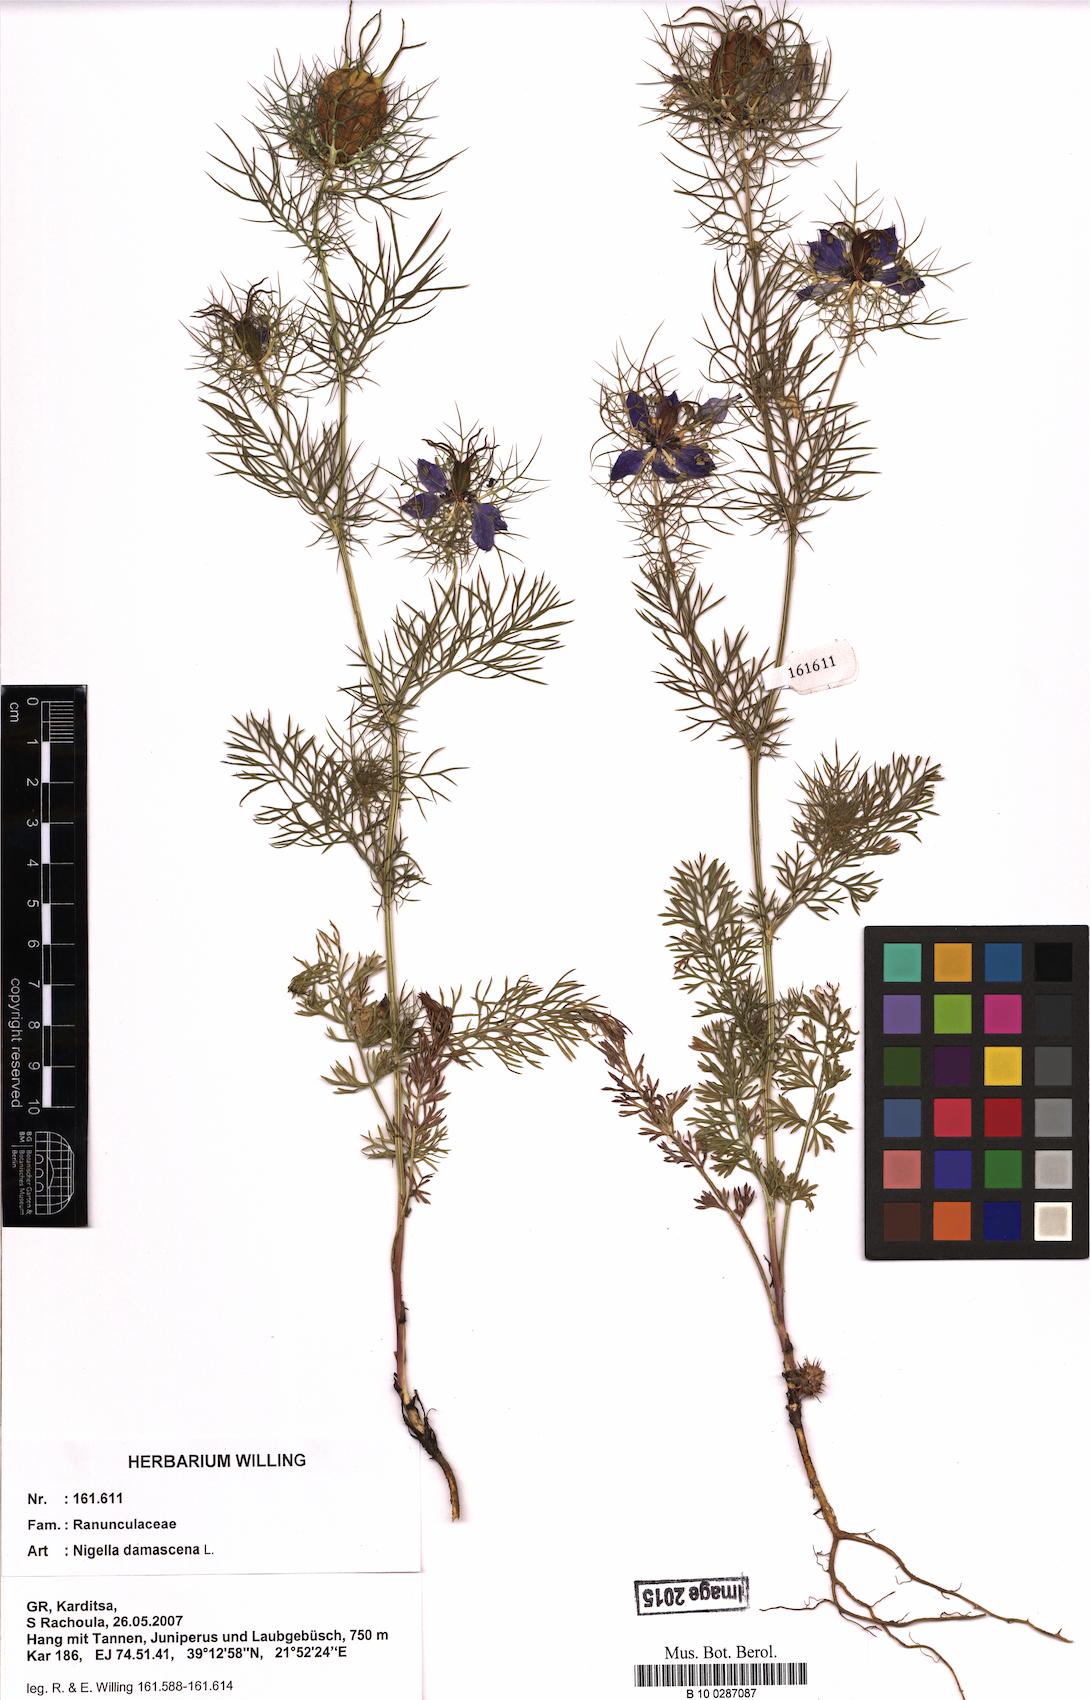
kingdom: Plantae
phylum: Tracheophyta
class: Magnoliopsida
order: Ranunculales
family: Ranunculaceae
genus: Nigella
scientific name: Nigella damascena
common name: Love-in-a-mist
